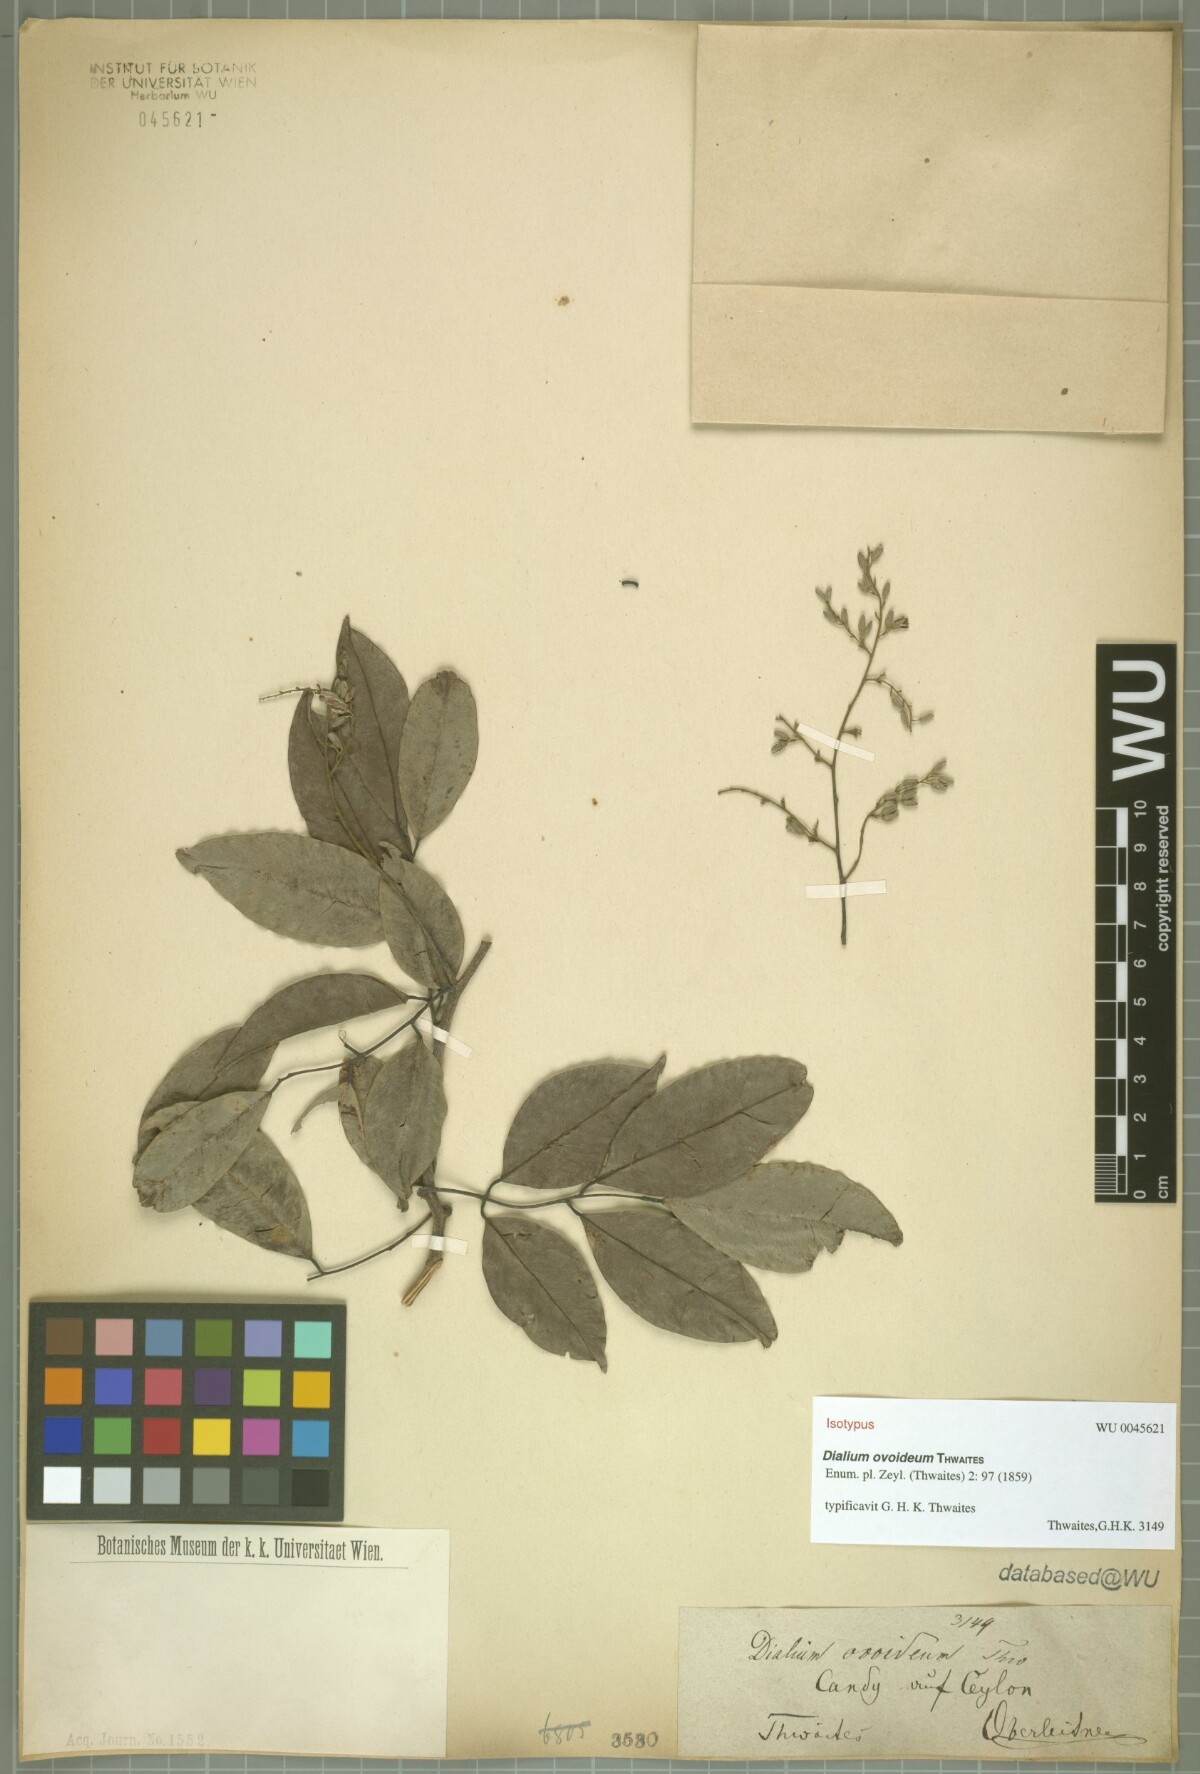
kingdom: Plantae
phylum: Tracheophyta
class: Magnoliopsida
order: Fabales
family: Fabaceae
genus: Dialium
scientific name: Dialium ovoideum
